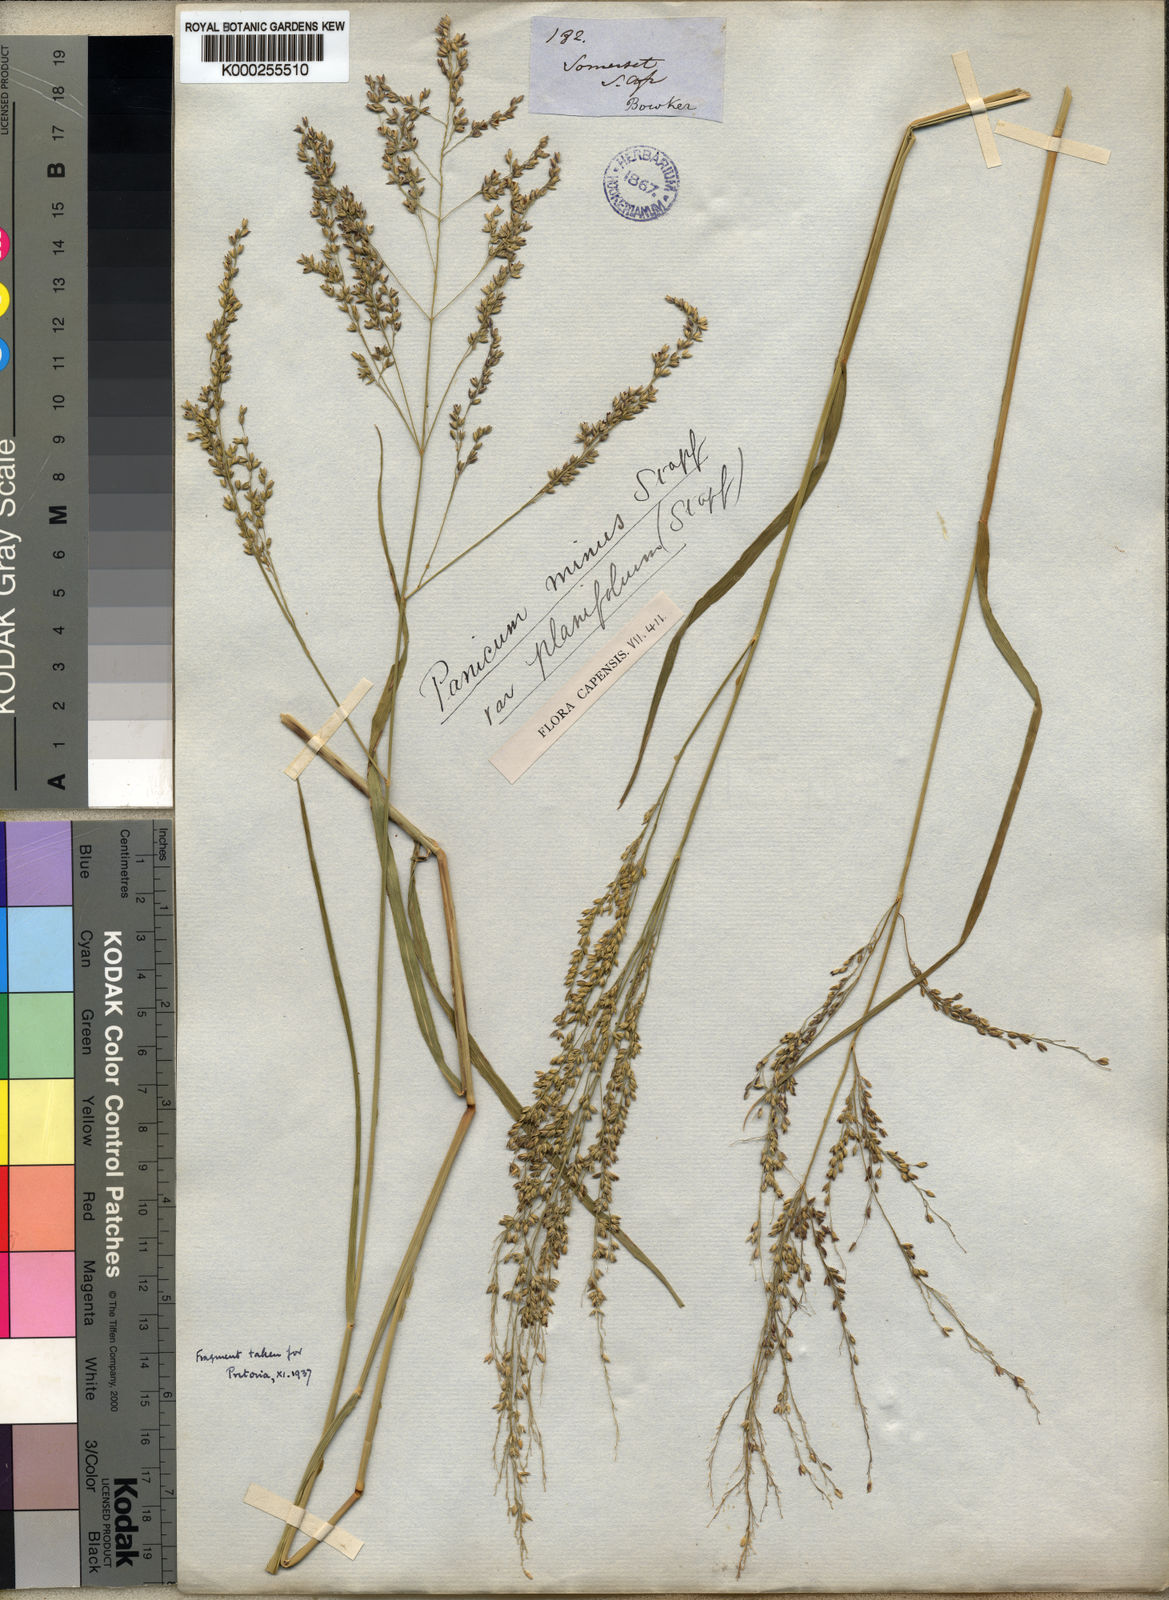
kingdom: Plantae
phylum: Tracheophyta
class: Liliopsida
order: Poales
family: Poaceae
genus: Panicum
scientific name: Panicum stapfianum
